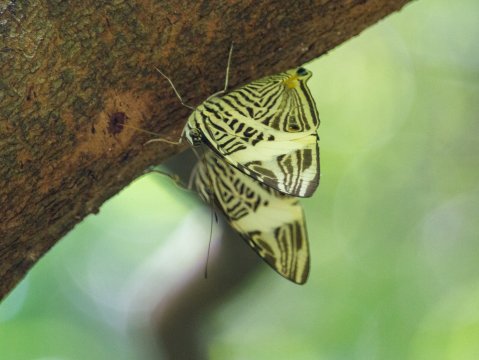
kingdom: Animalia
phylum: Arthropoda
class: Insecta
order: Lepidoptera
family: Nymphalidae
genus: Colobura
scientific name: Colobura dirce
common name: Dirce Beauty
